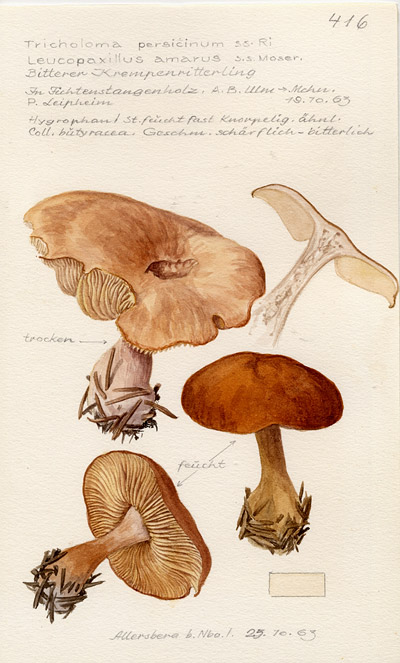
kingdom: Fungi
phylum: Basidiomycota
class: Agaricomycetes
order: Agaricales
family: Tricholomataceae
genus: Leucopaxillus
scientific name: Leucopaxillus gentianeus
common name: Bitter funnel
